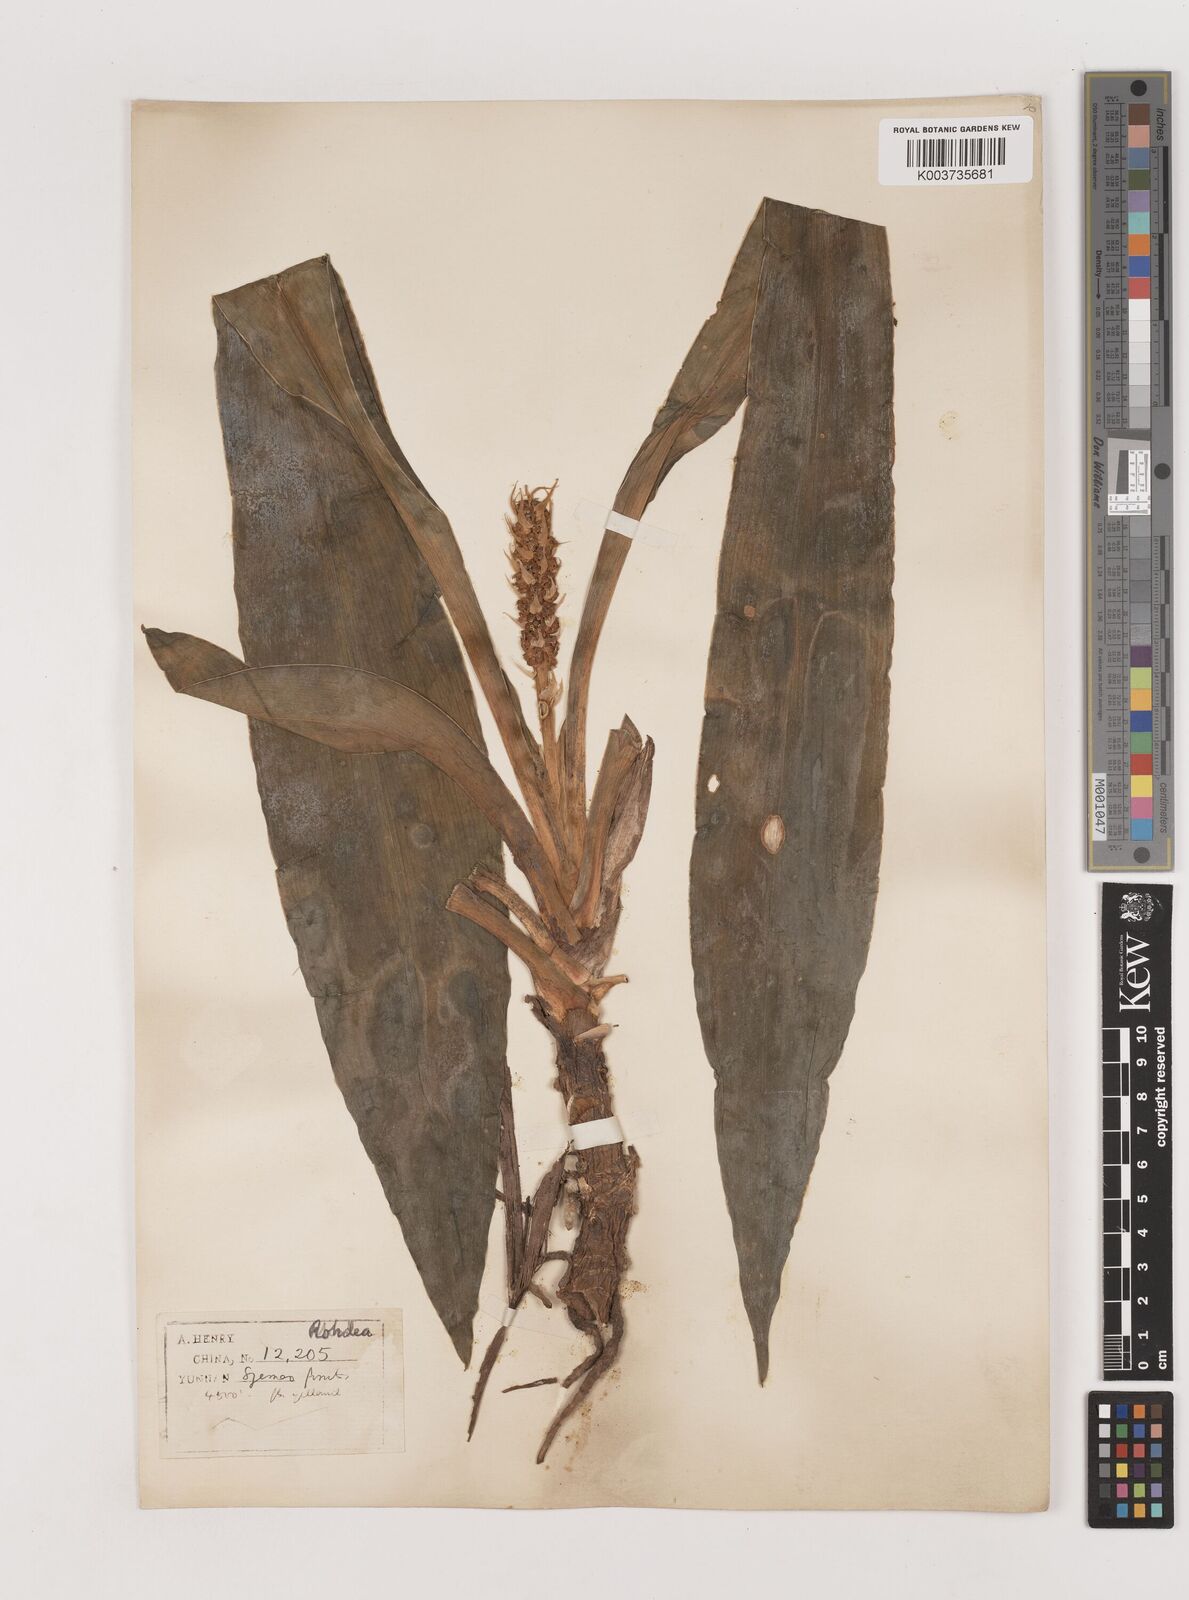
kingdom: Plantae
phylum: Tracheophyta
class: Liliopsida
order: Asparagales
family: Asparagaceae
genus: Rohdea
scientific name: Rohdea fargesii
